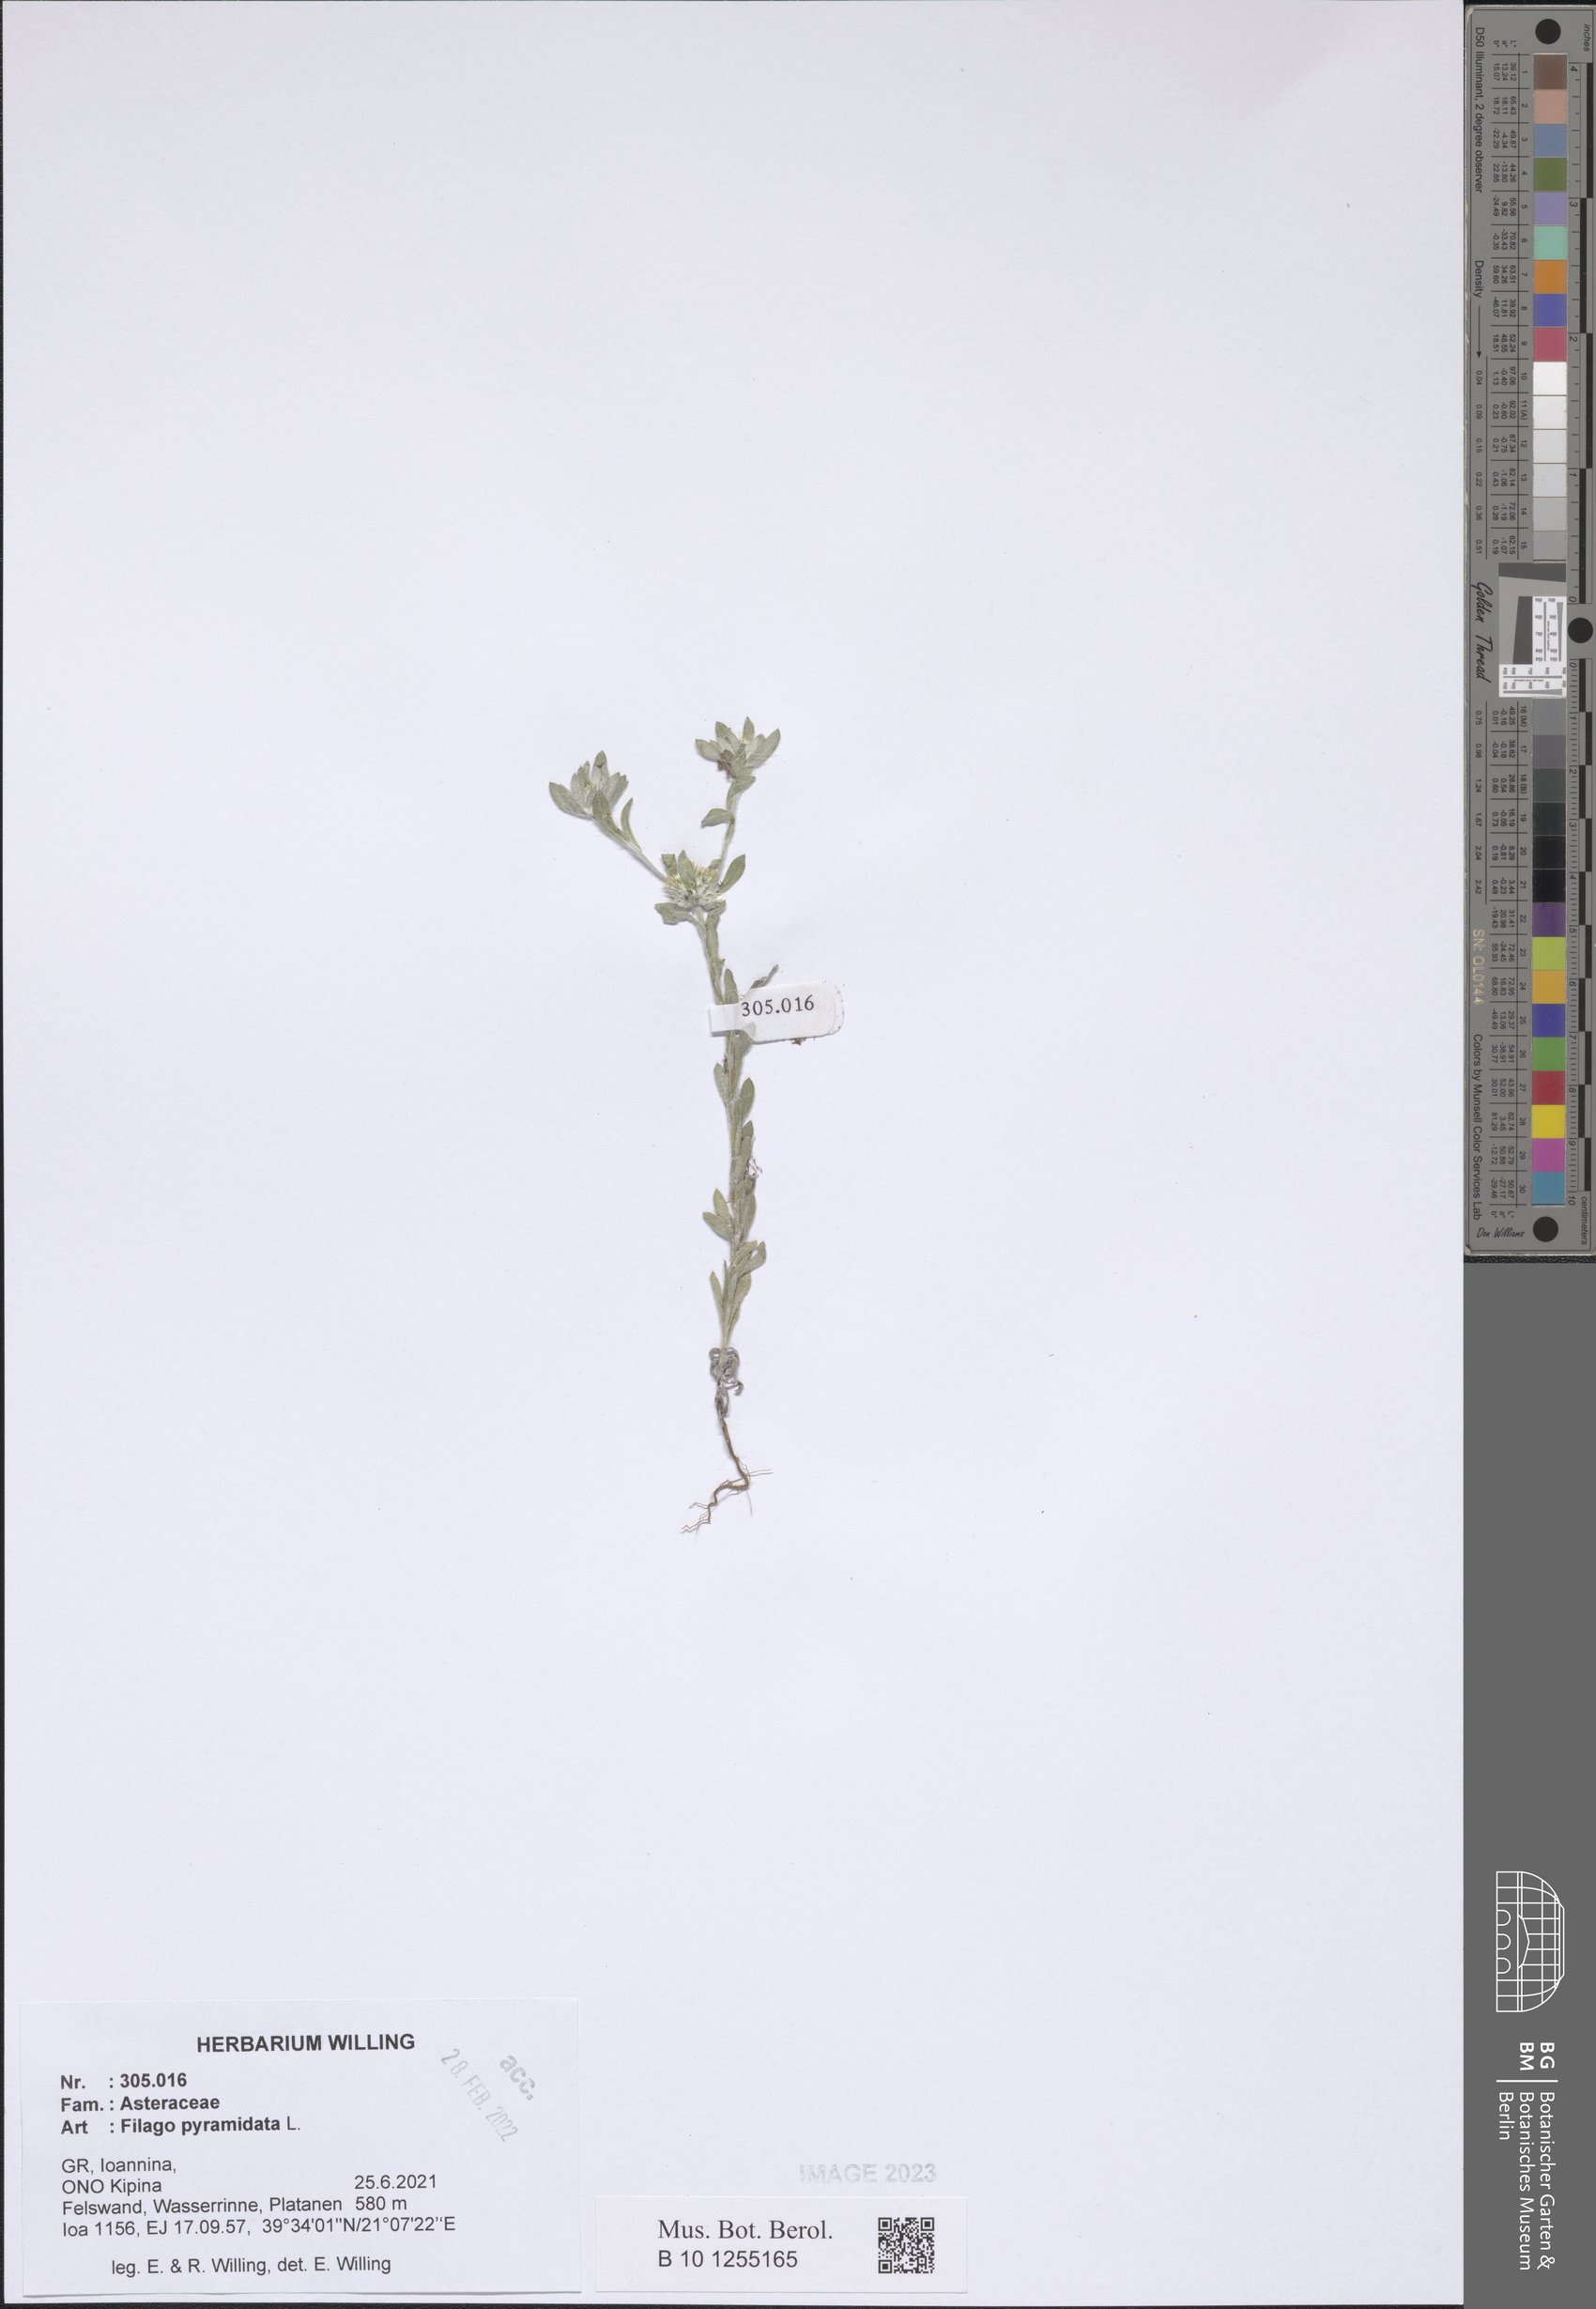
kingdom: Plantae
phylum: Tracheophyta
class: Magnoliopsida
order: Asterales
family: Asteraceae
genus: Filago
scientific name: Filago pyramidata
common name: Broad-leaved cudweed
